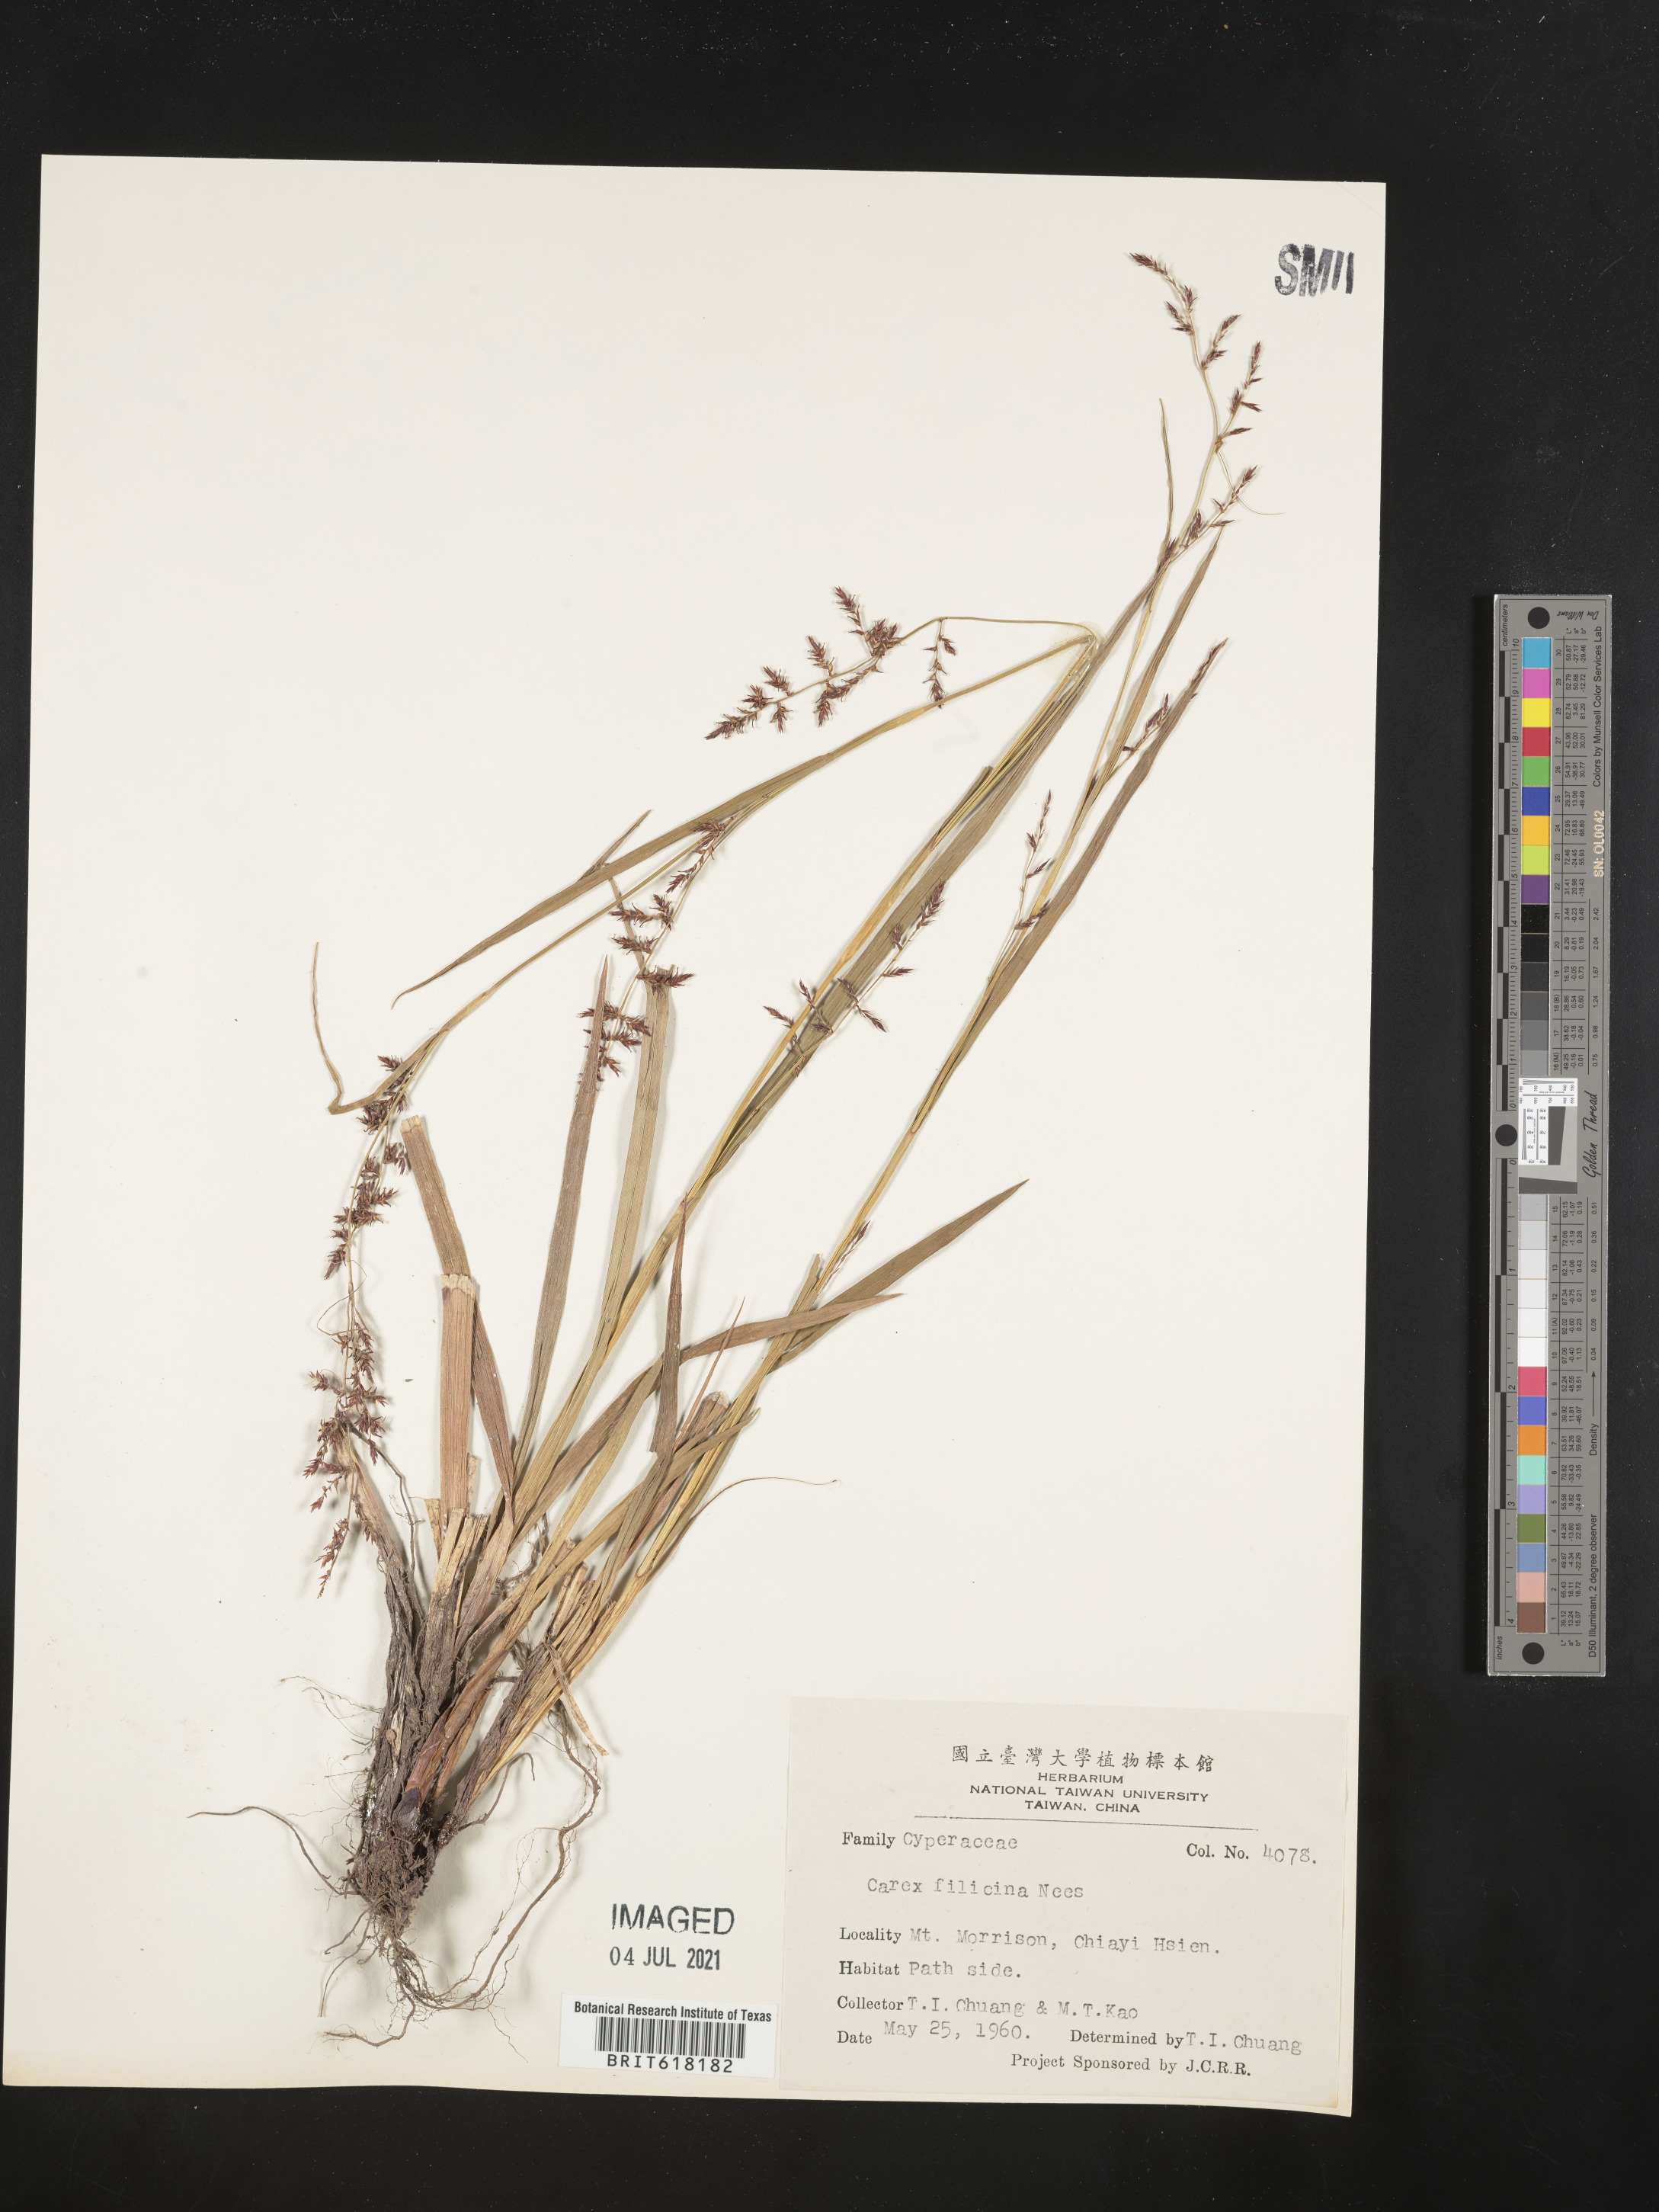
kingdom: Plantae
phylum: Tracheophyta
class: Liliopsida
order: Poales
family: Cyperaceae
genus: Carex
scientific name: Carex filicina
